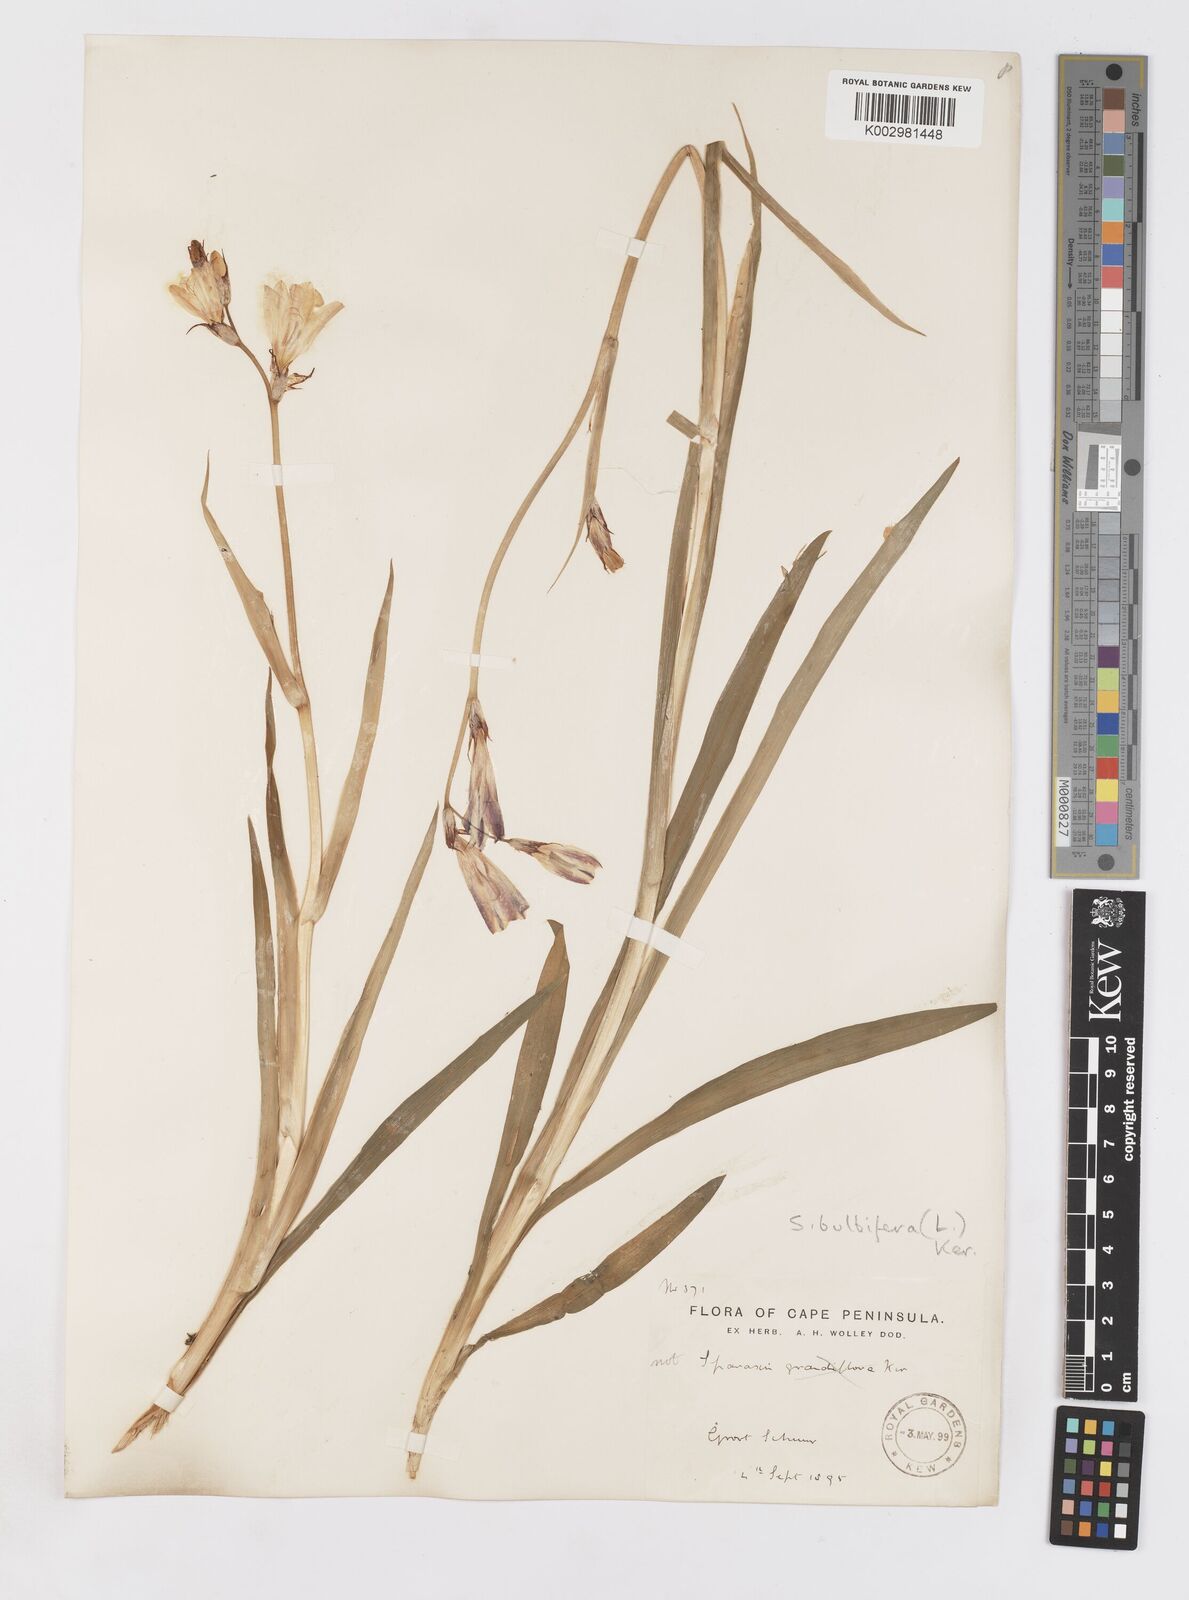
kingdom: Plantae
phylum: Tracheophyta
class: Liliopsida
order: Asparagales
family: Iridaceae
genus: Sparaxis
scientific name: Sparaxis bulbifera
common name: Harlequin-flower
